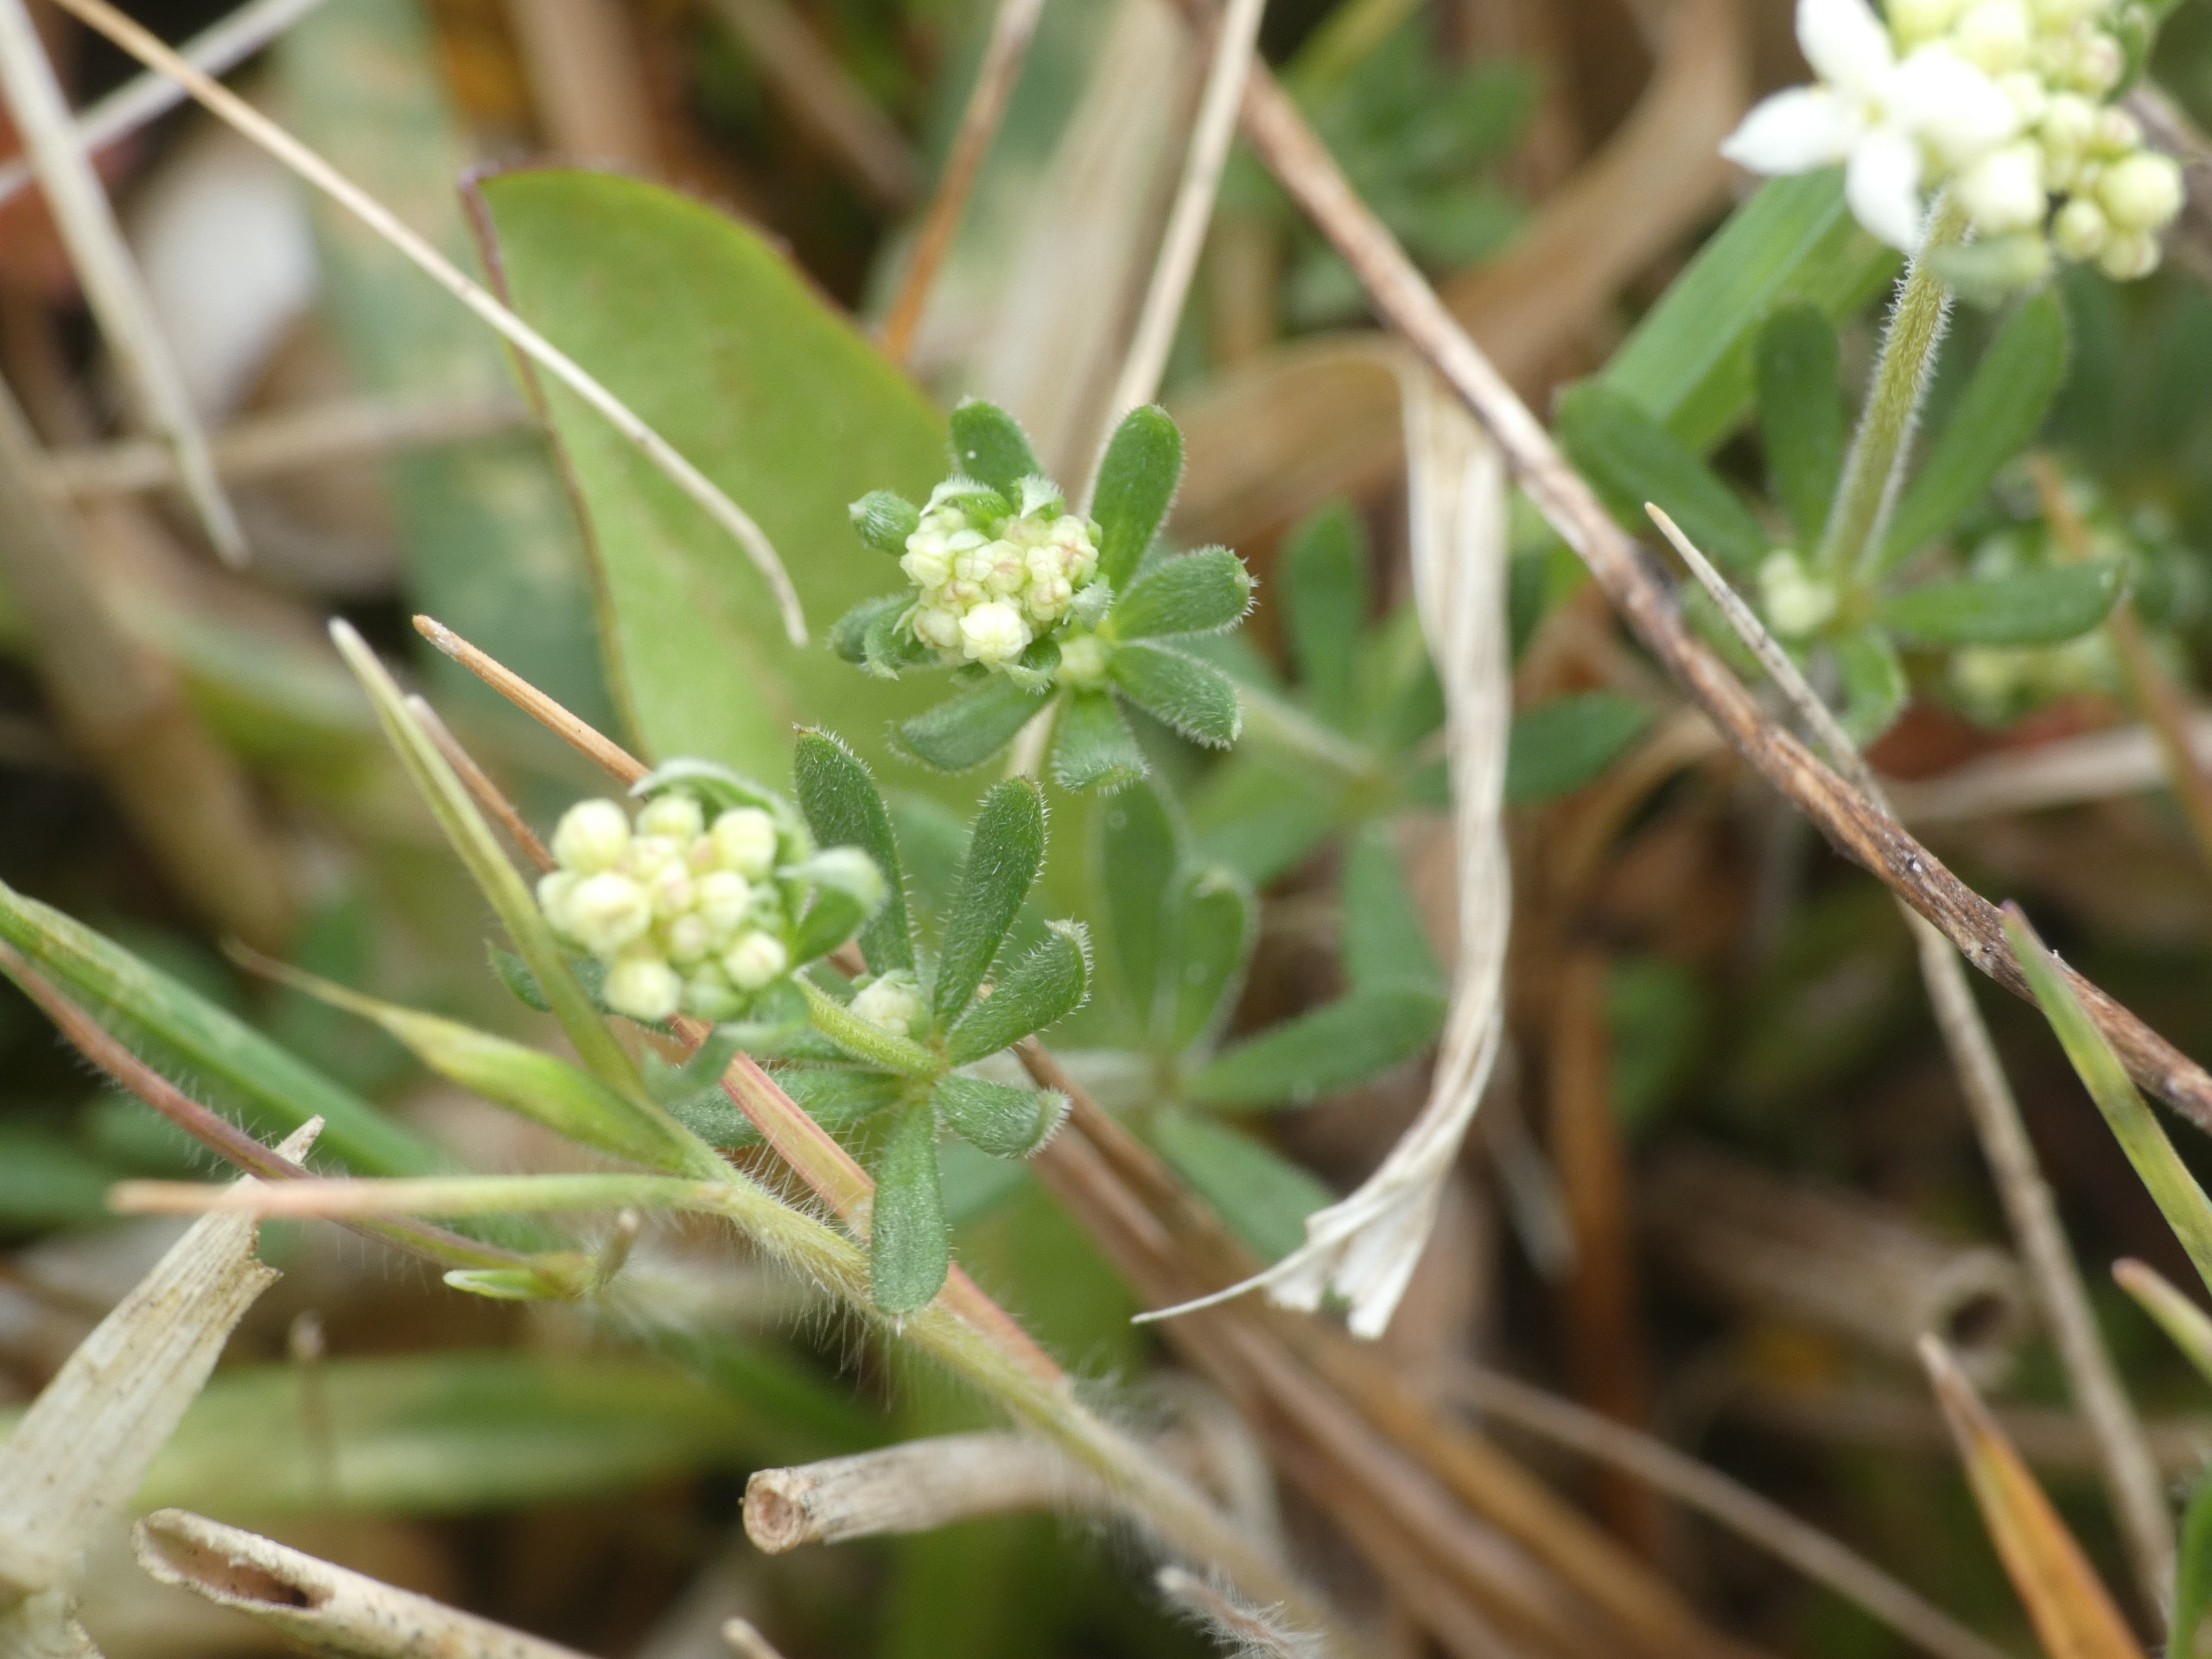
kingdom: Plantae
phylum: Tracheophyta
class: Magnoliopsida
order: Gentianales
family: Rubiaceae
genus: Galium
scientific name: Galium mollugo
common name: Hvid snerre
